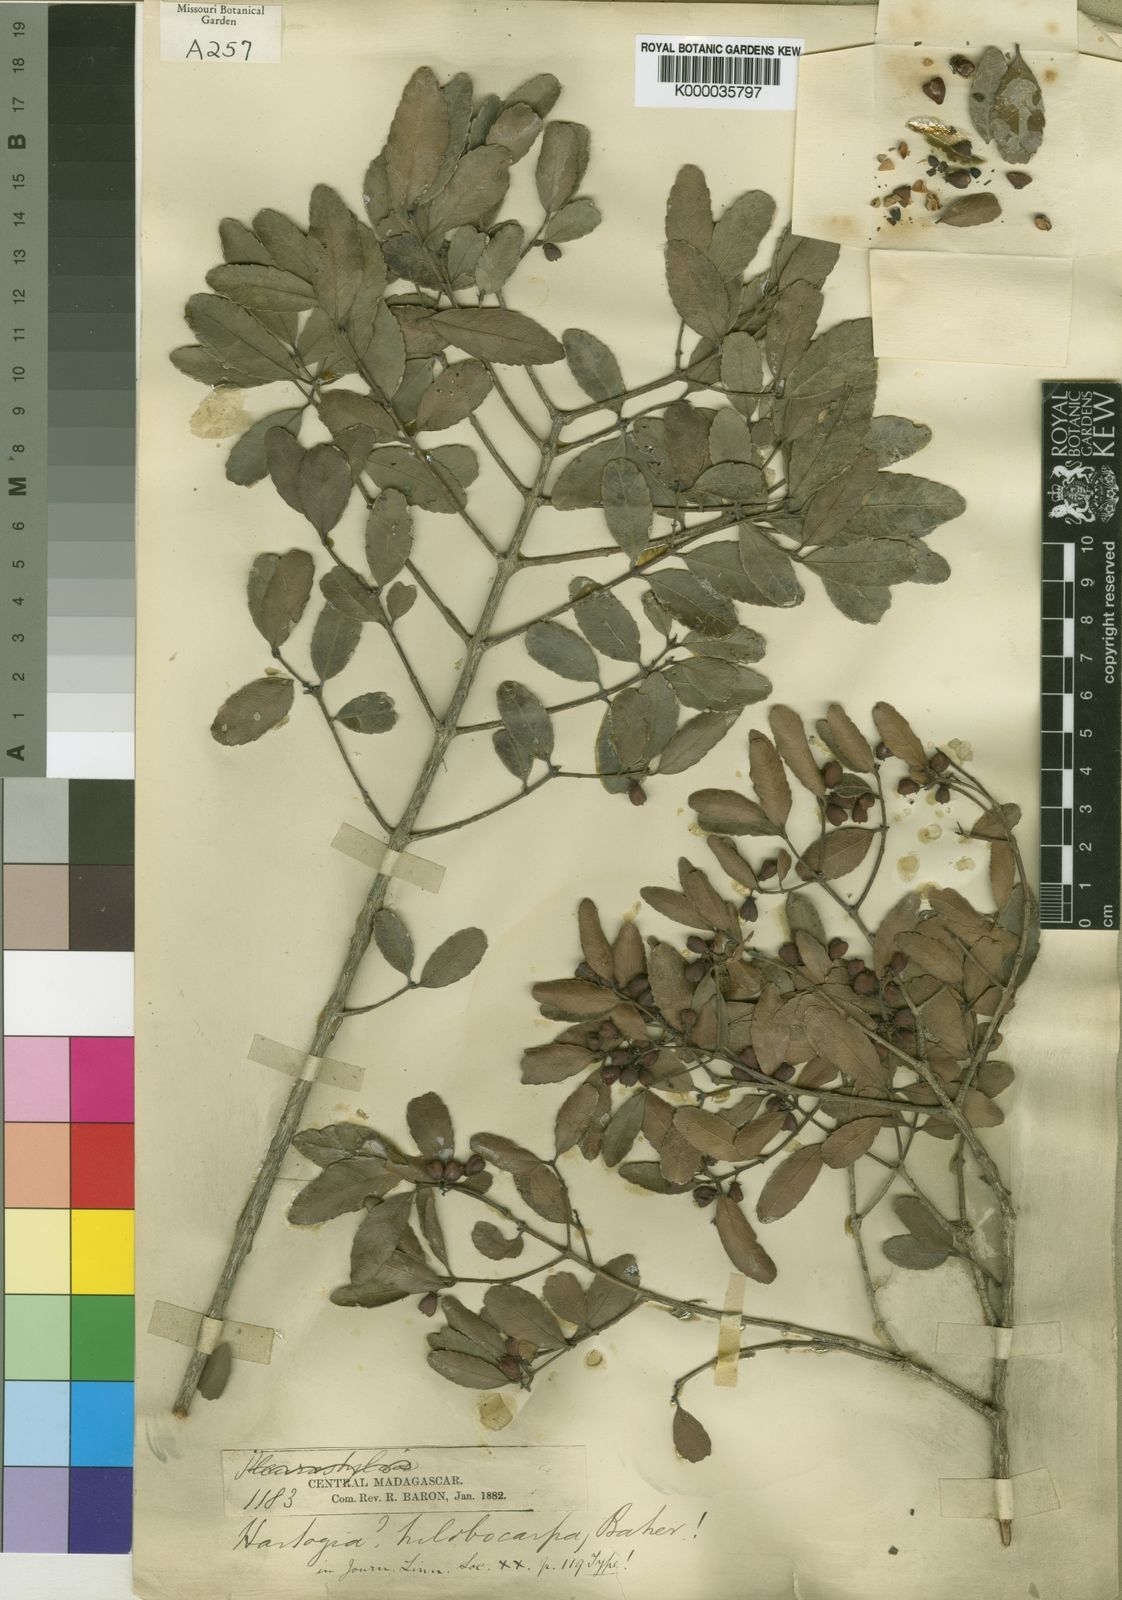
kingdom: Plantae
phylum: Tracheophyta
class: Magnoliopsida
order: Celastrales
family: Celastraceae
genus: Hartogiopsis
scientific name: Hartogiopsis trilobocarpa
